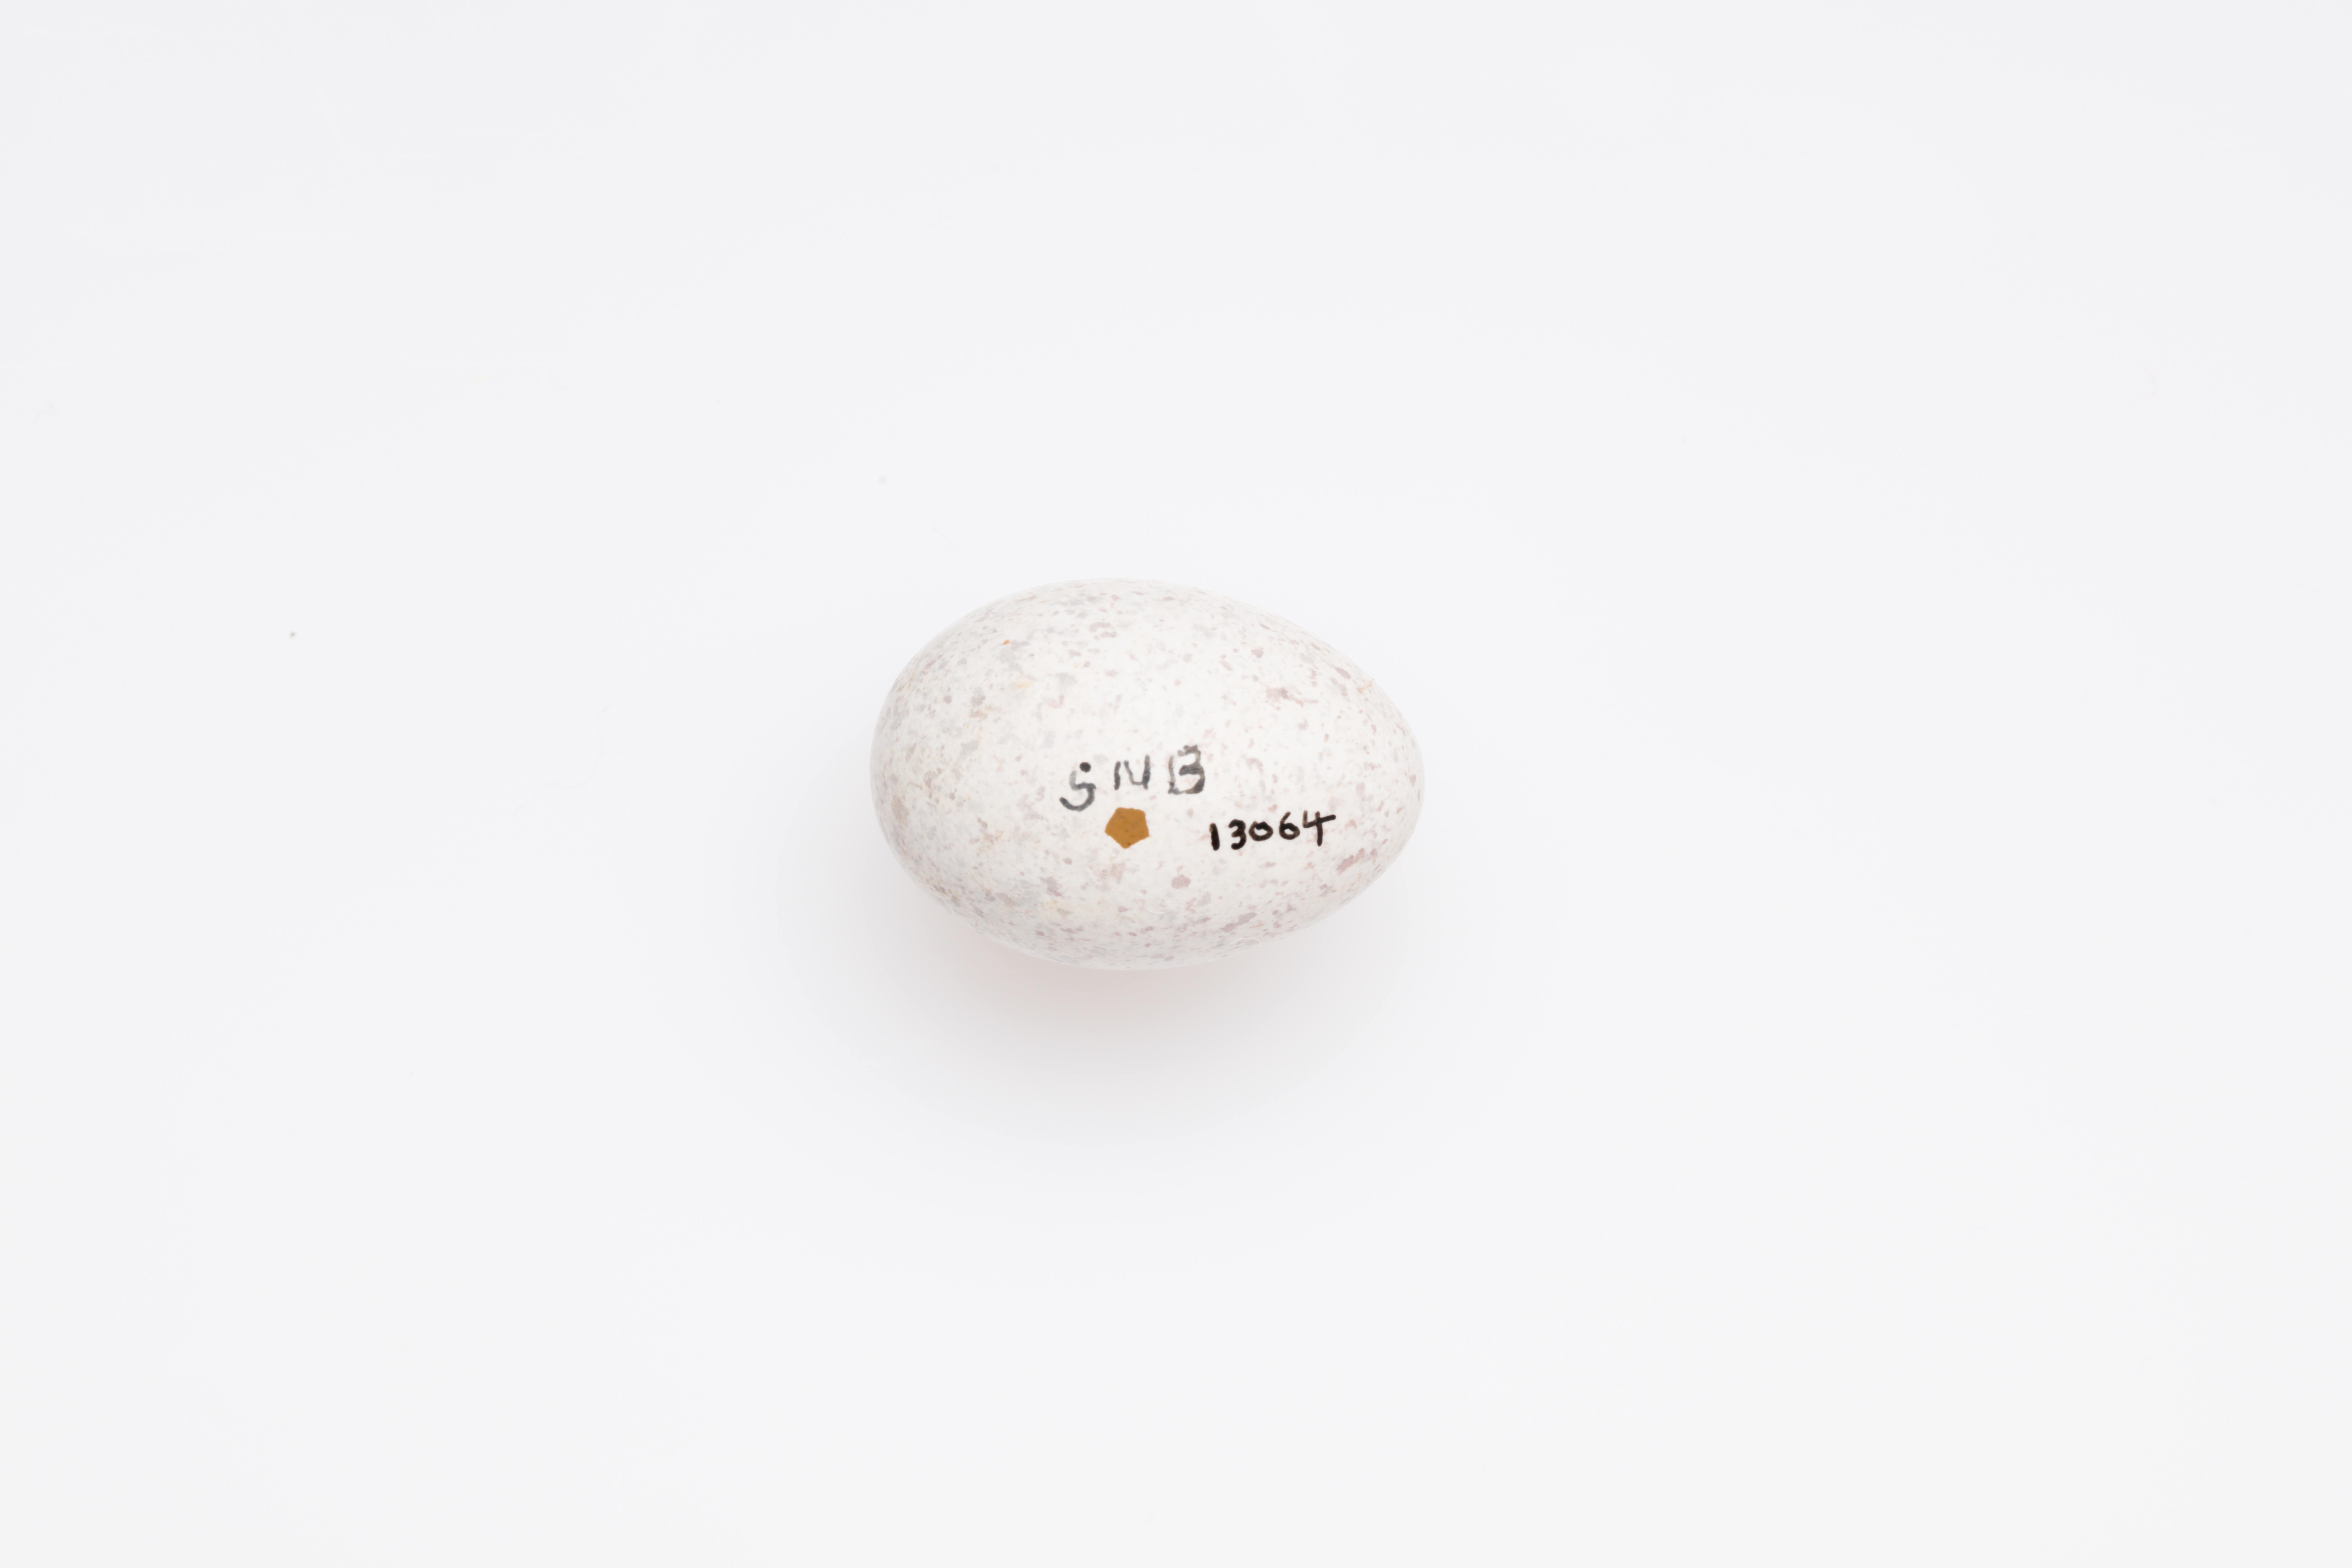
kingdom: Animalia
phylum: Chordata
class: Aves
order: Passeriformes
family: Locustellidae
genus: Megalurus
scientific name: Megalurus punctatus
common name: New zealand fernbird
